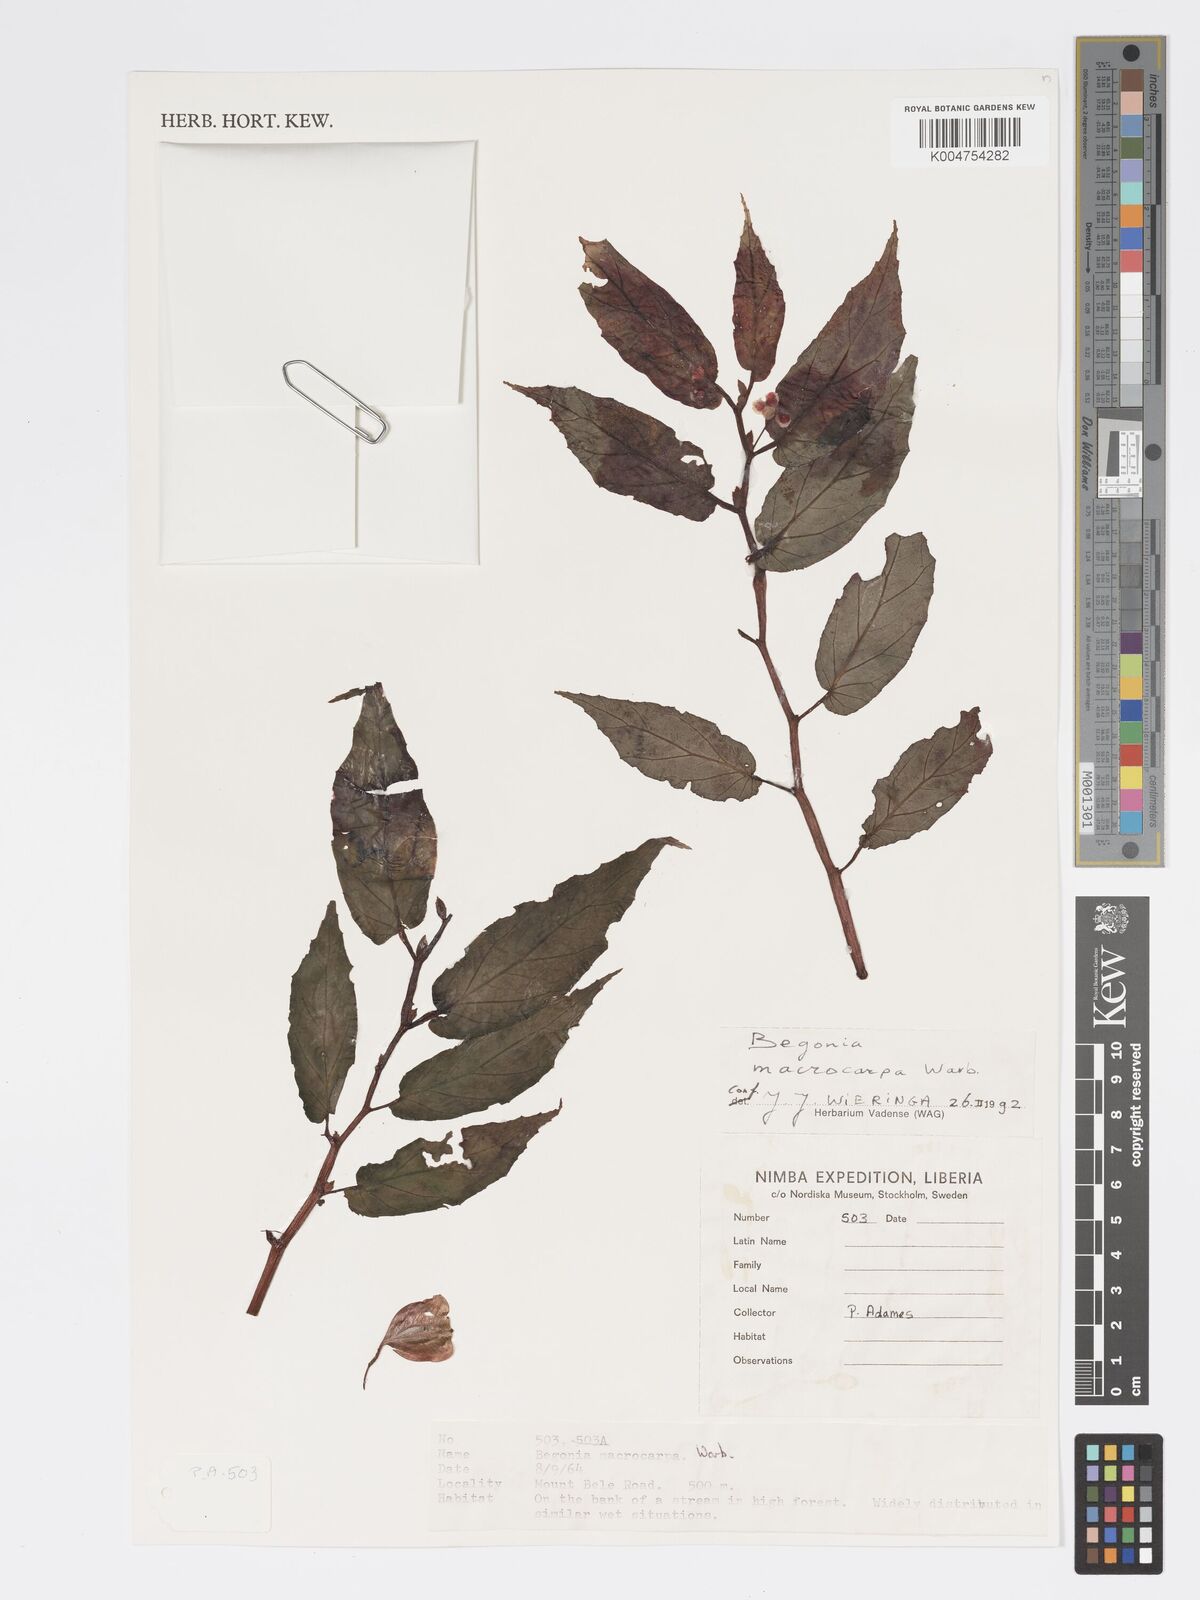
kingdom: Plantae
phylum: Tracheophyta
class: Magnoliopsida
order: Cucurbitales
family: Begoniaceae
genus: Begonia
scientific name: Begonia macrocarpa
